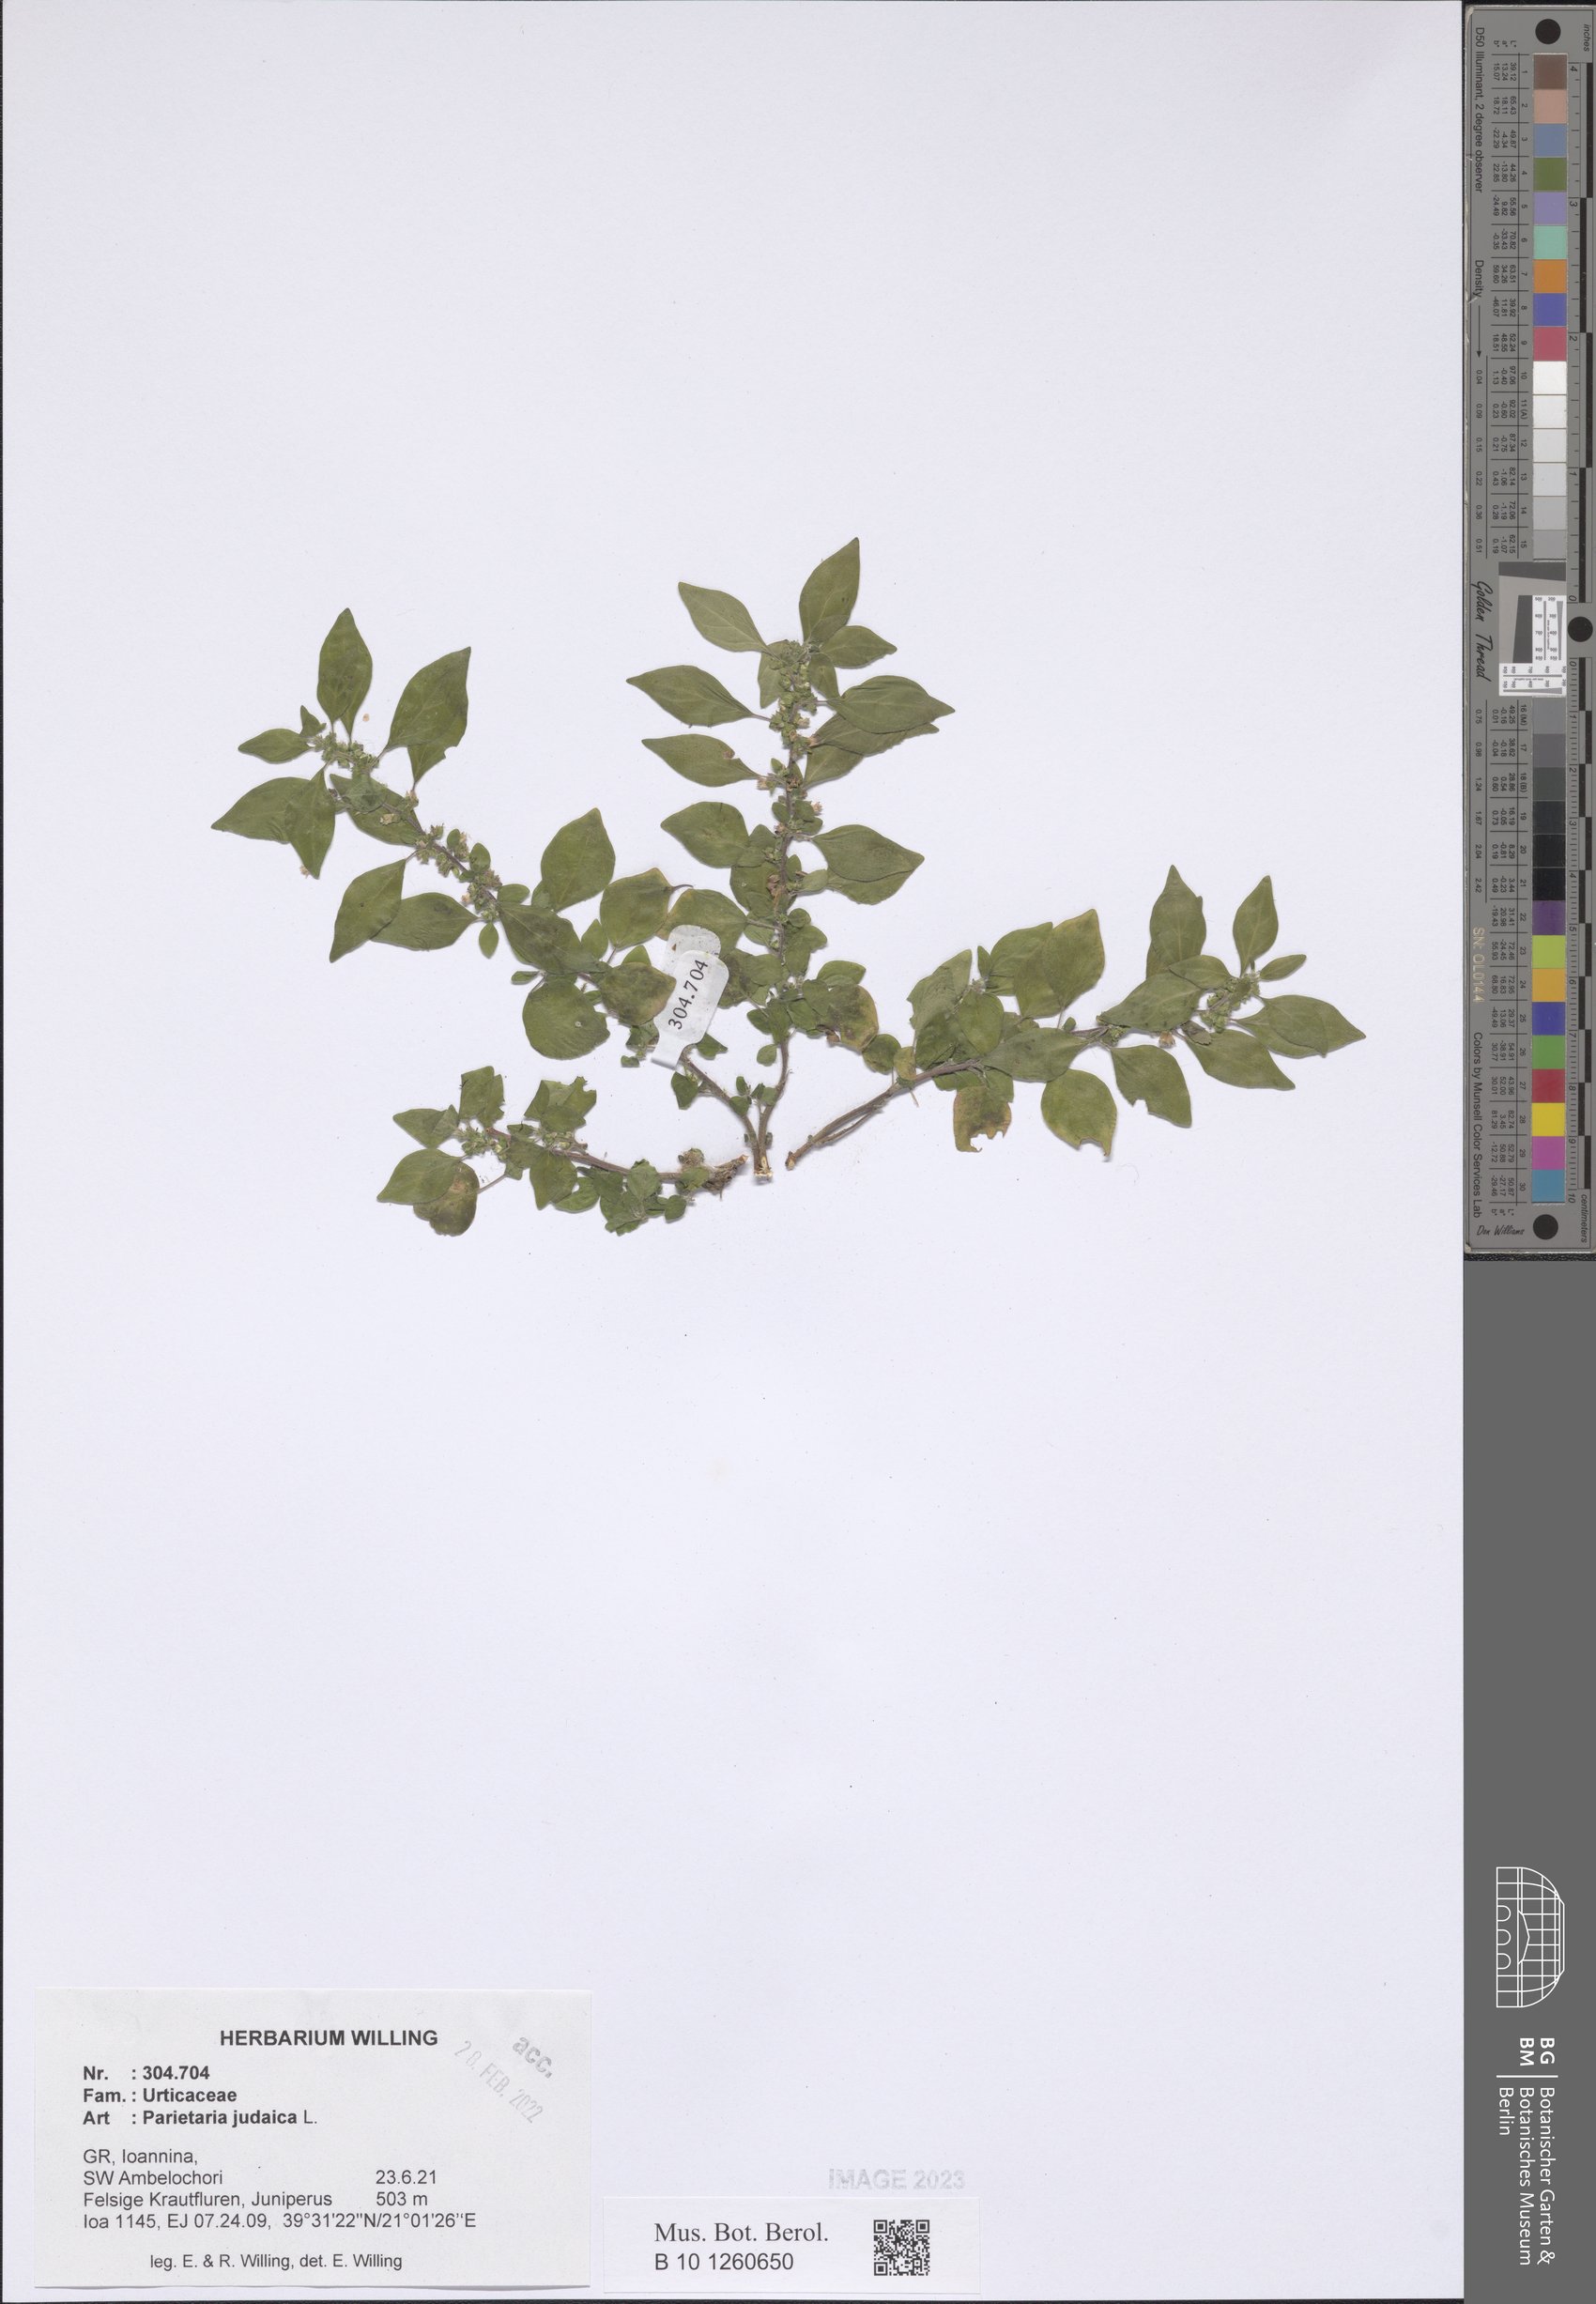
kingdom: Plantae
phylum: Tracheophyta
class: Magnoliopsida
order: Rosales
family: Urticaceae
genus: Parietaria
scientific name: Parietaria judaica
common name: Pellitory-of-the-wall
